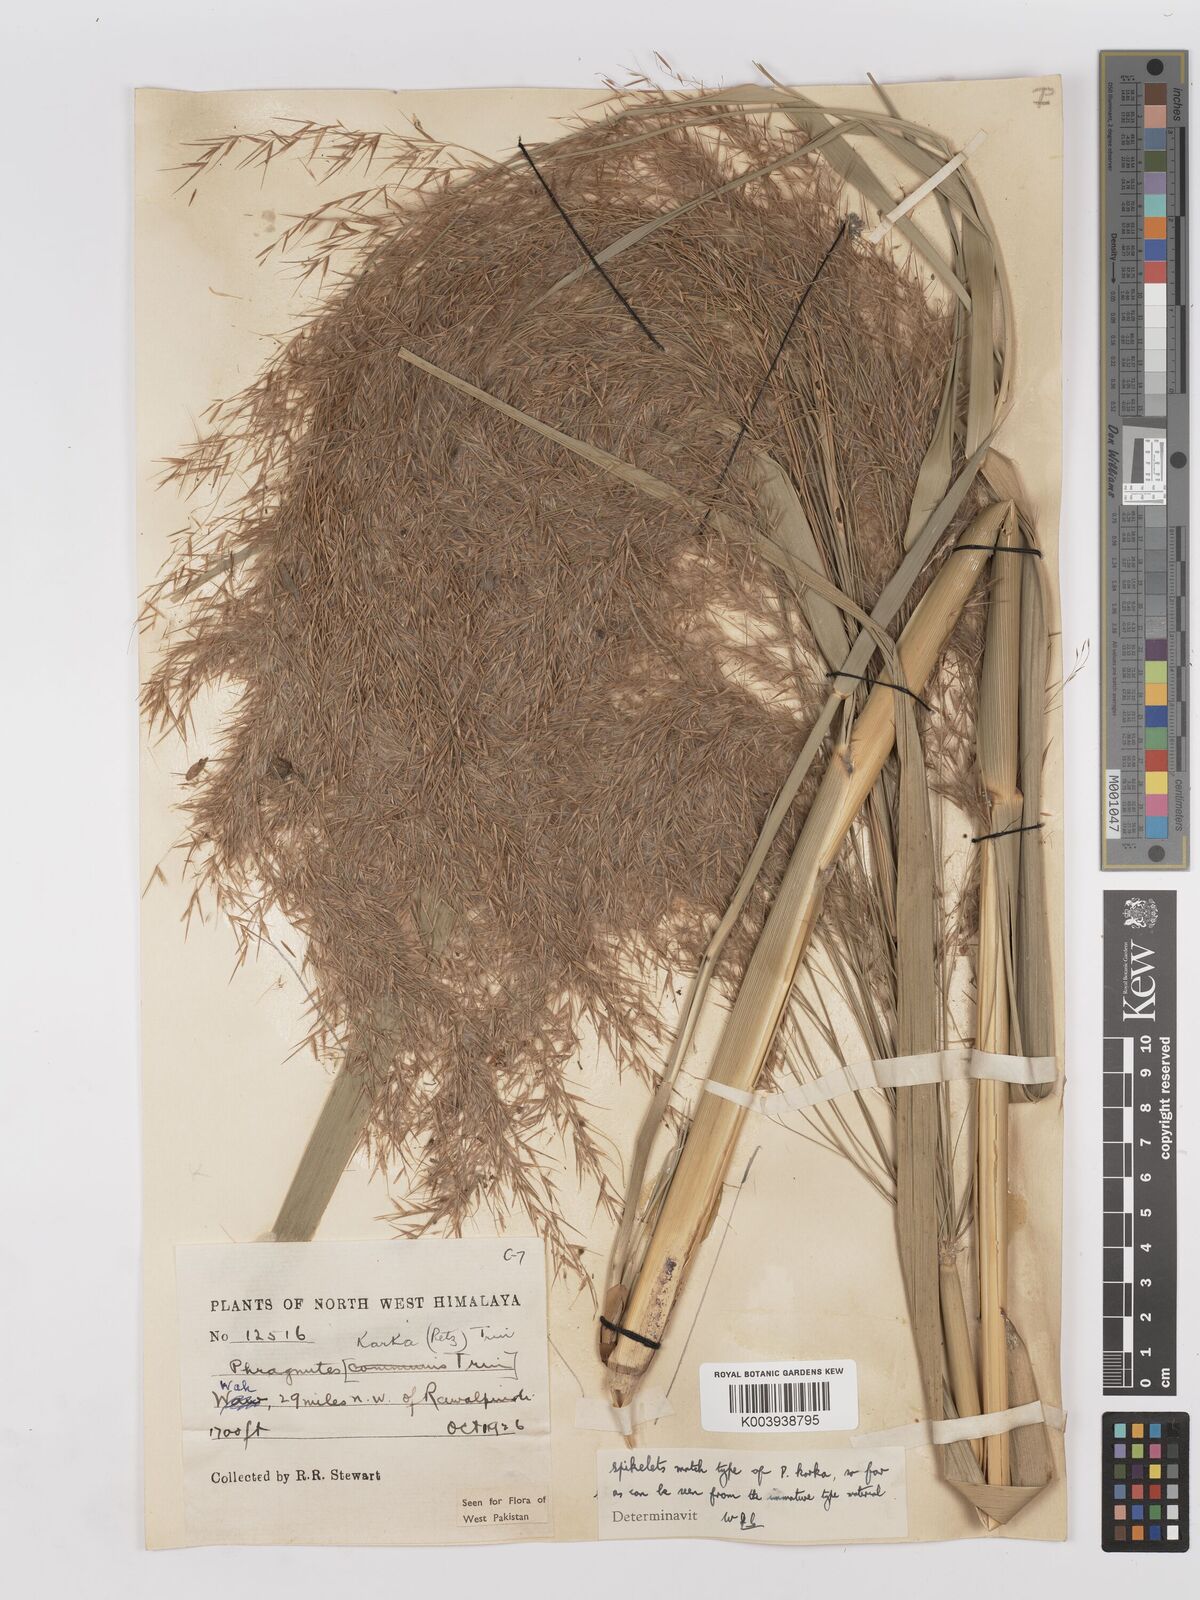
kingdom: Plantae
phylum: Tracheophyta
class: Liliopsida
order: Poales
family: Poaceae
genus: Phragmites
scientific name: Phragmites karka
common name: Tropical reed
